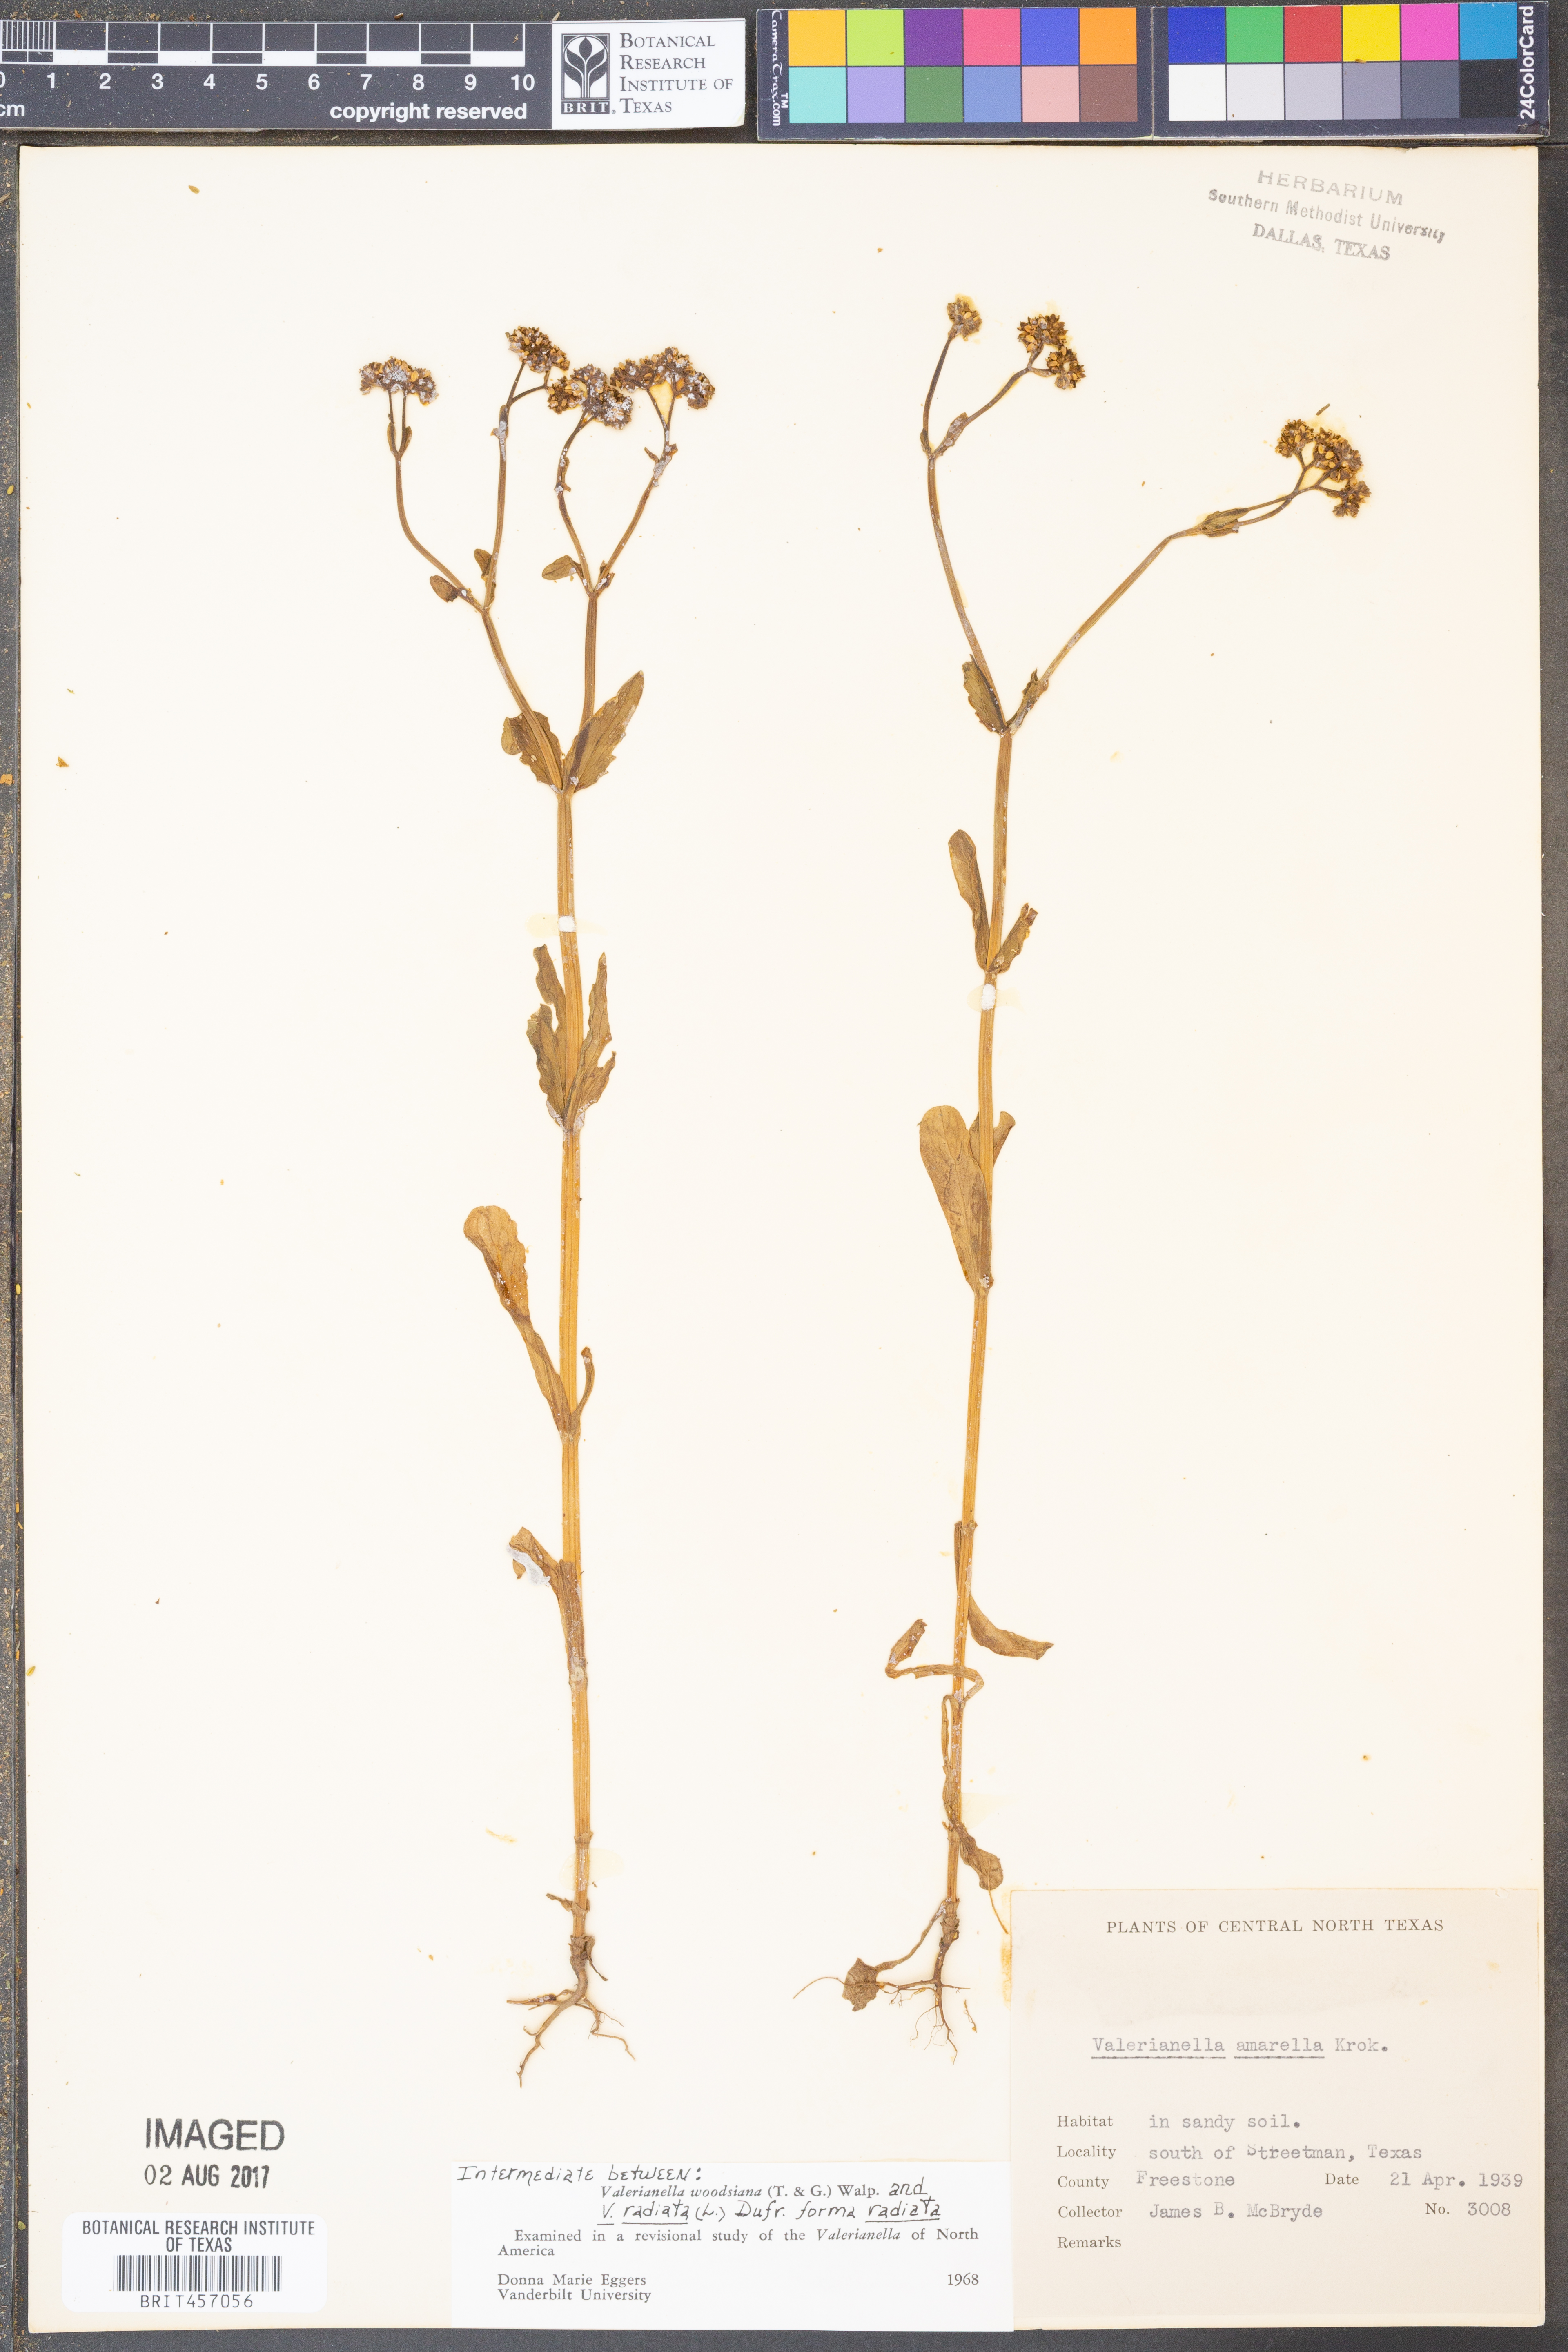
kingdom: Plantae
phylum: Tracheophyta
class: Magnoliopsida
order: Dipsacales
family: Caprifoliaceae
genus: Valerianella
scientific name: Valerianella radiata
